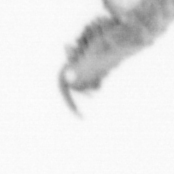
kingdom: Animalia
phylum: Annelida
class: Polychaeta
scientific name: Polychaeta
